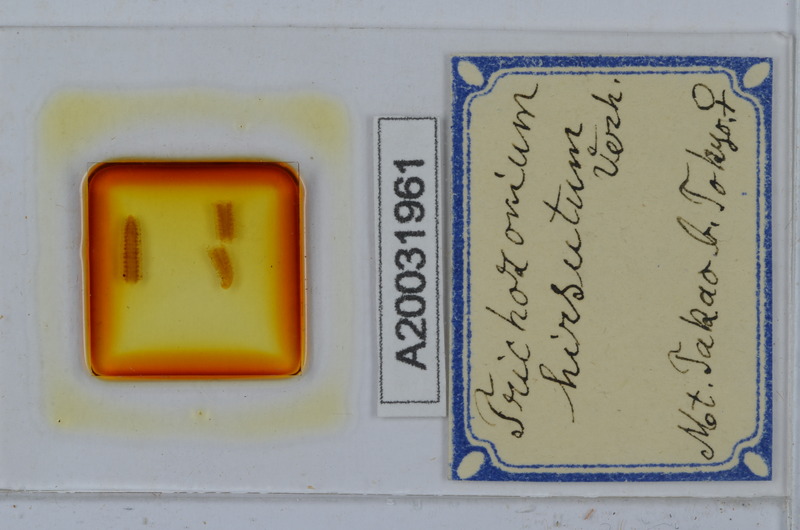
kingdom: Animalia
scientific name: Animalia
